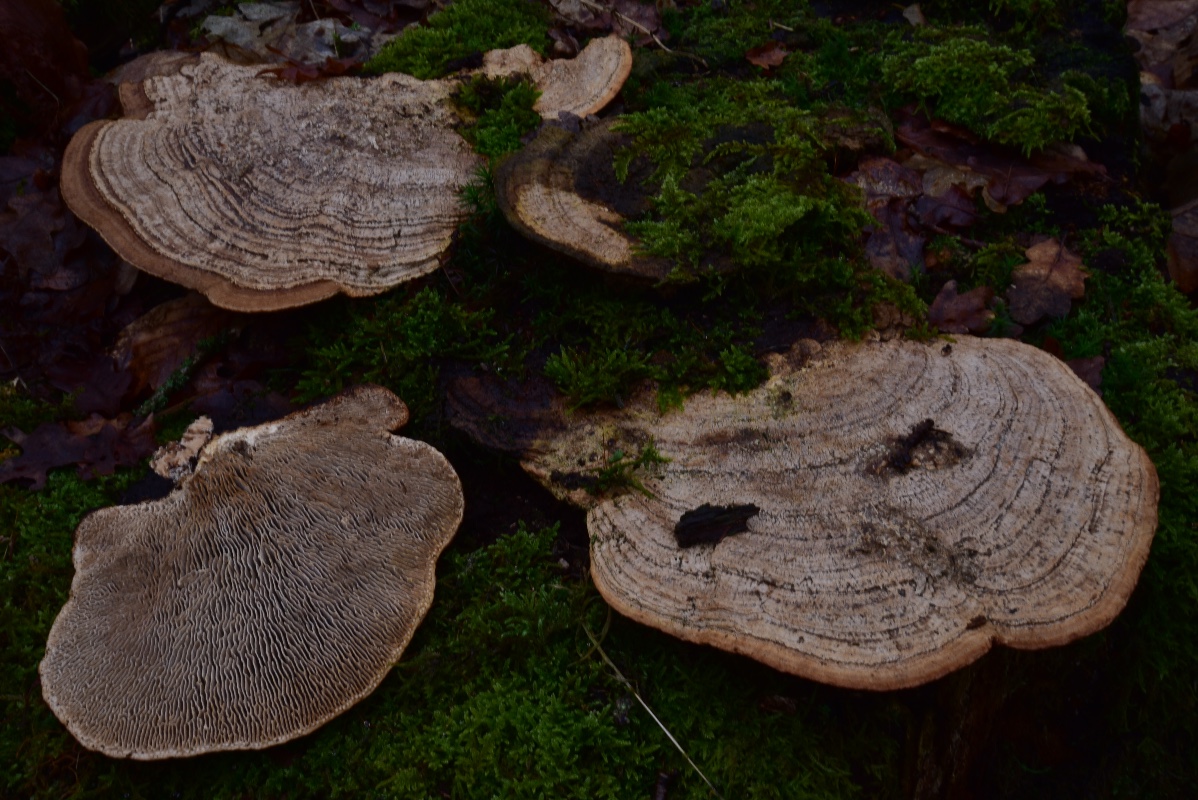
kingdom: Fungi
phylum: Basidiomycota
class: Agaricomycetes
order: Polyporales
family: Fomitopsidaceae
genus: Daedalea
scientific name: Daedalea quercina
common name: ege-labyrintsvamp
